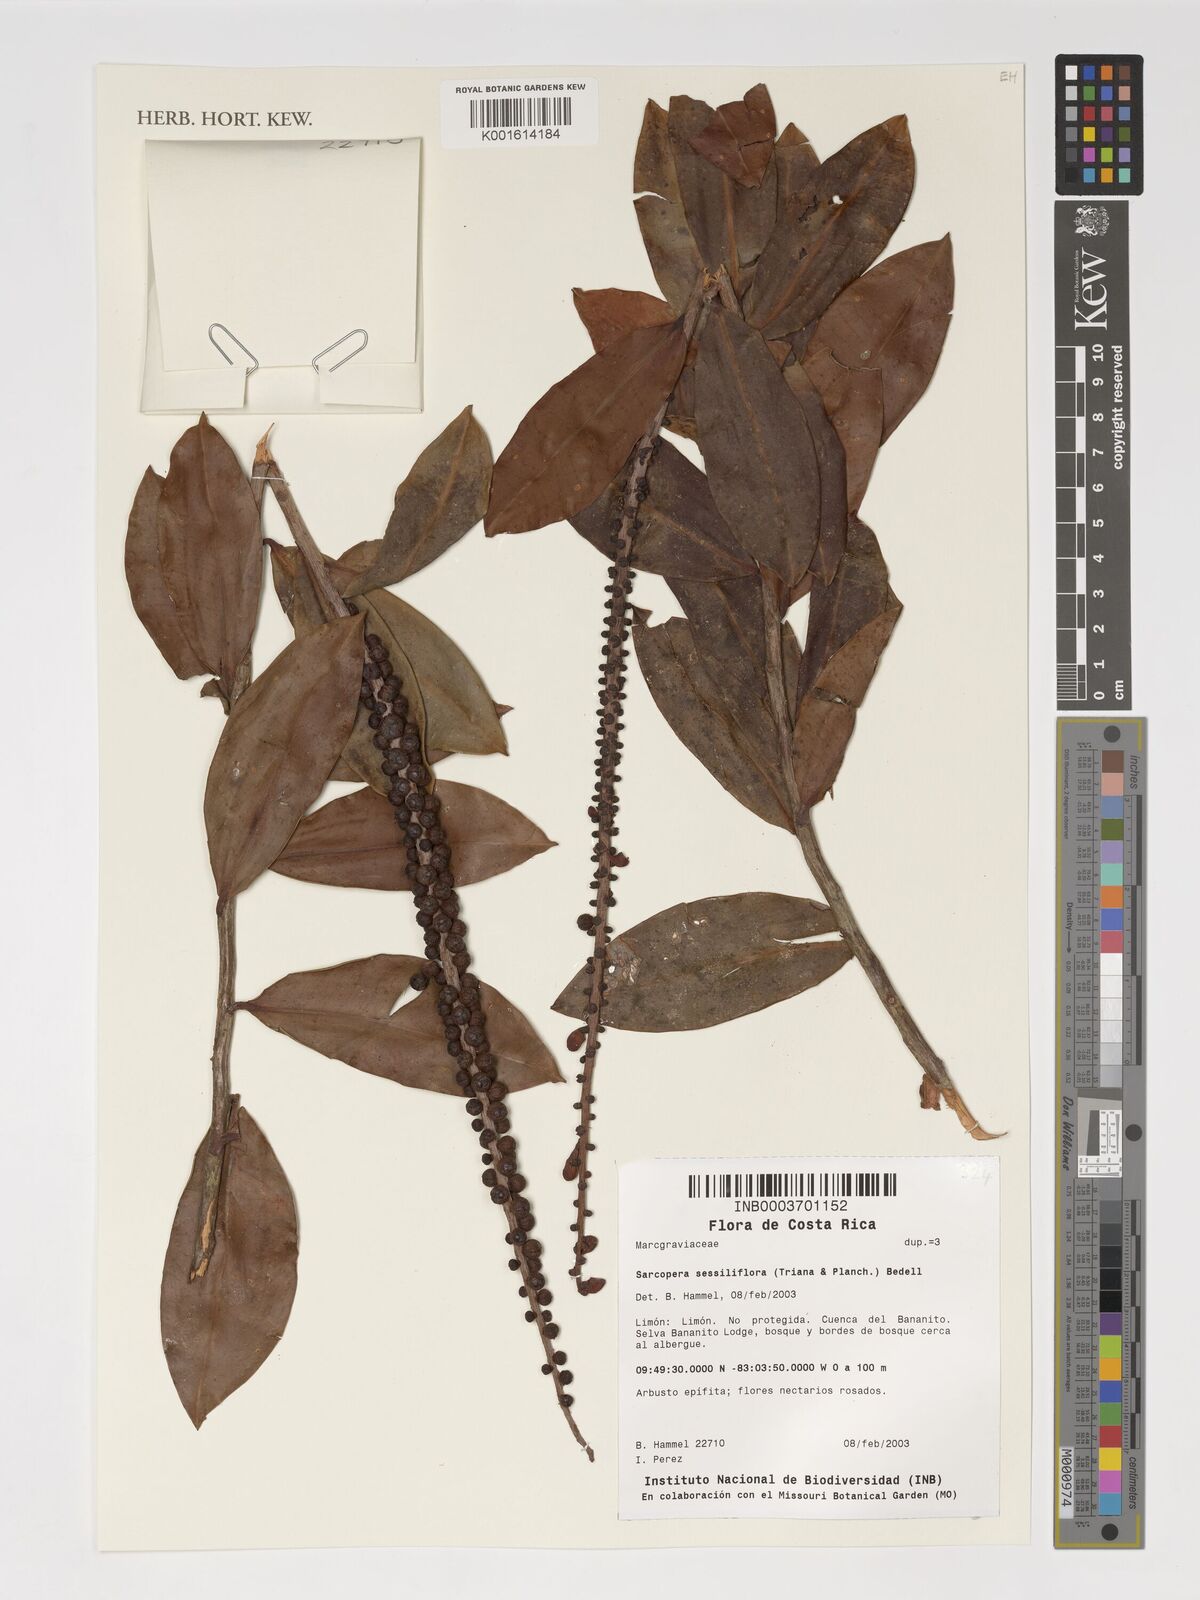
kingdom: Plantae
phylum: Tracheophyta
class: Magnoliopsida
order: Ericales
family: Marcgraviaceae
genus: Sarcopera
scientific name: Sarcopera sessiliflora
